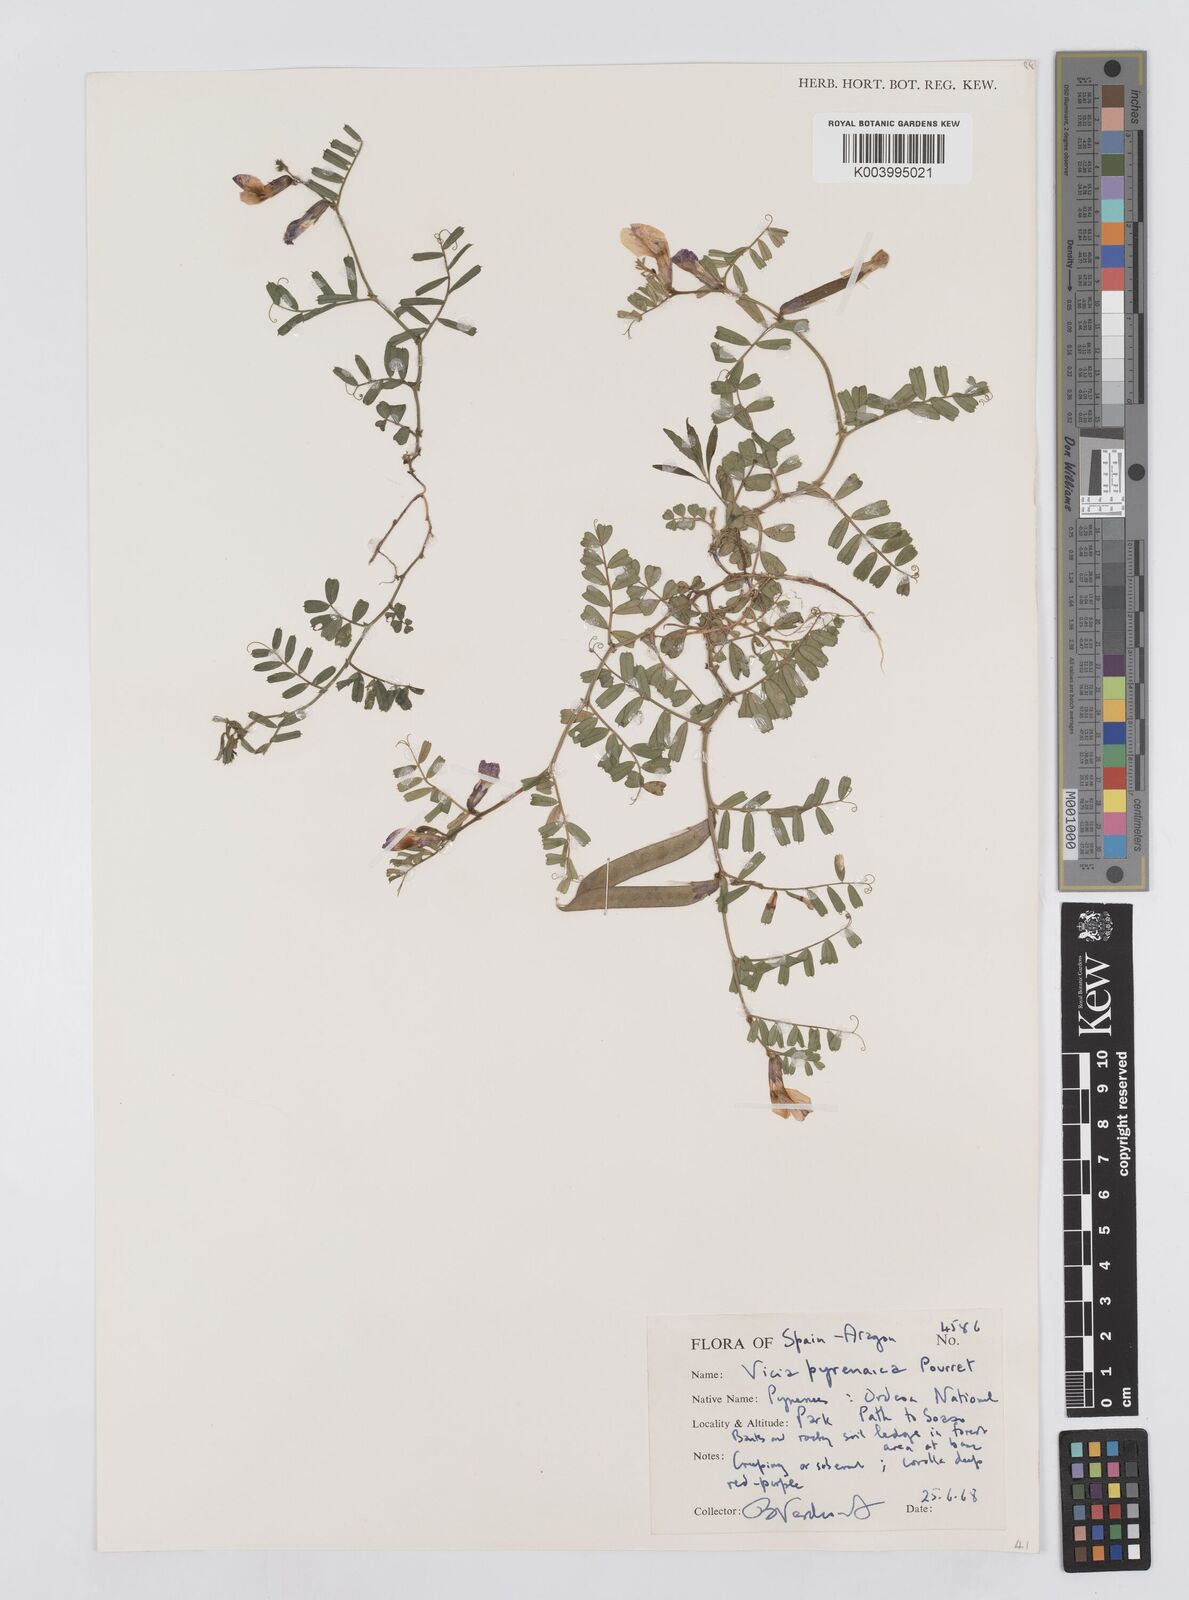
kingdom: Plantae
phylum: Tracheophyta
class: Magnoliopsida
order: Fabales
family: Fabaceae
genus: Vicia
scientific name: Vicia pyrenaica
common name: Pyrenean vetch
